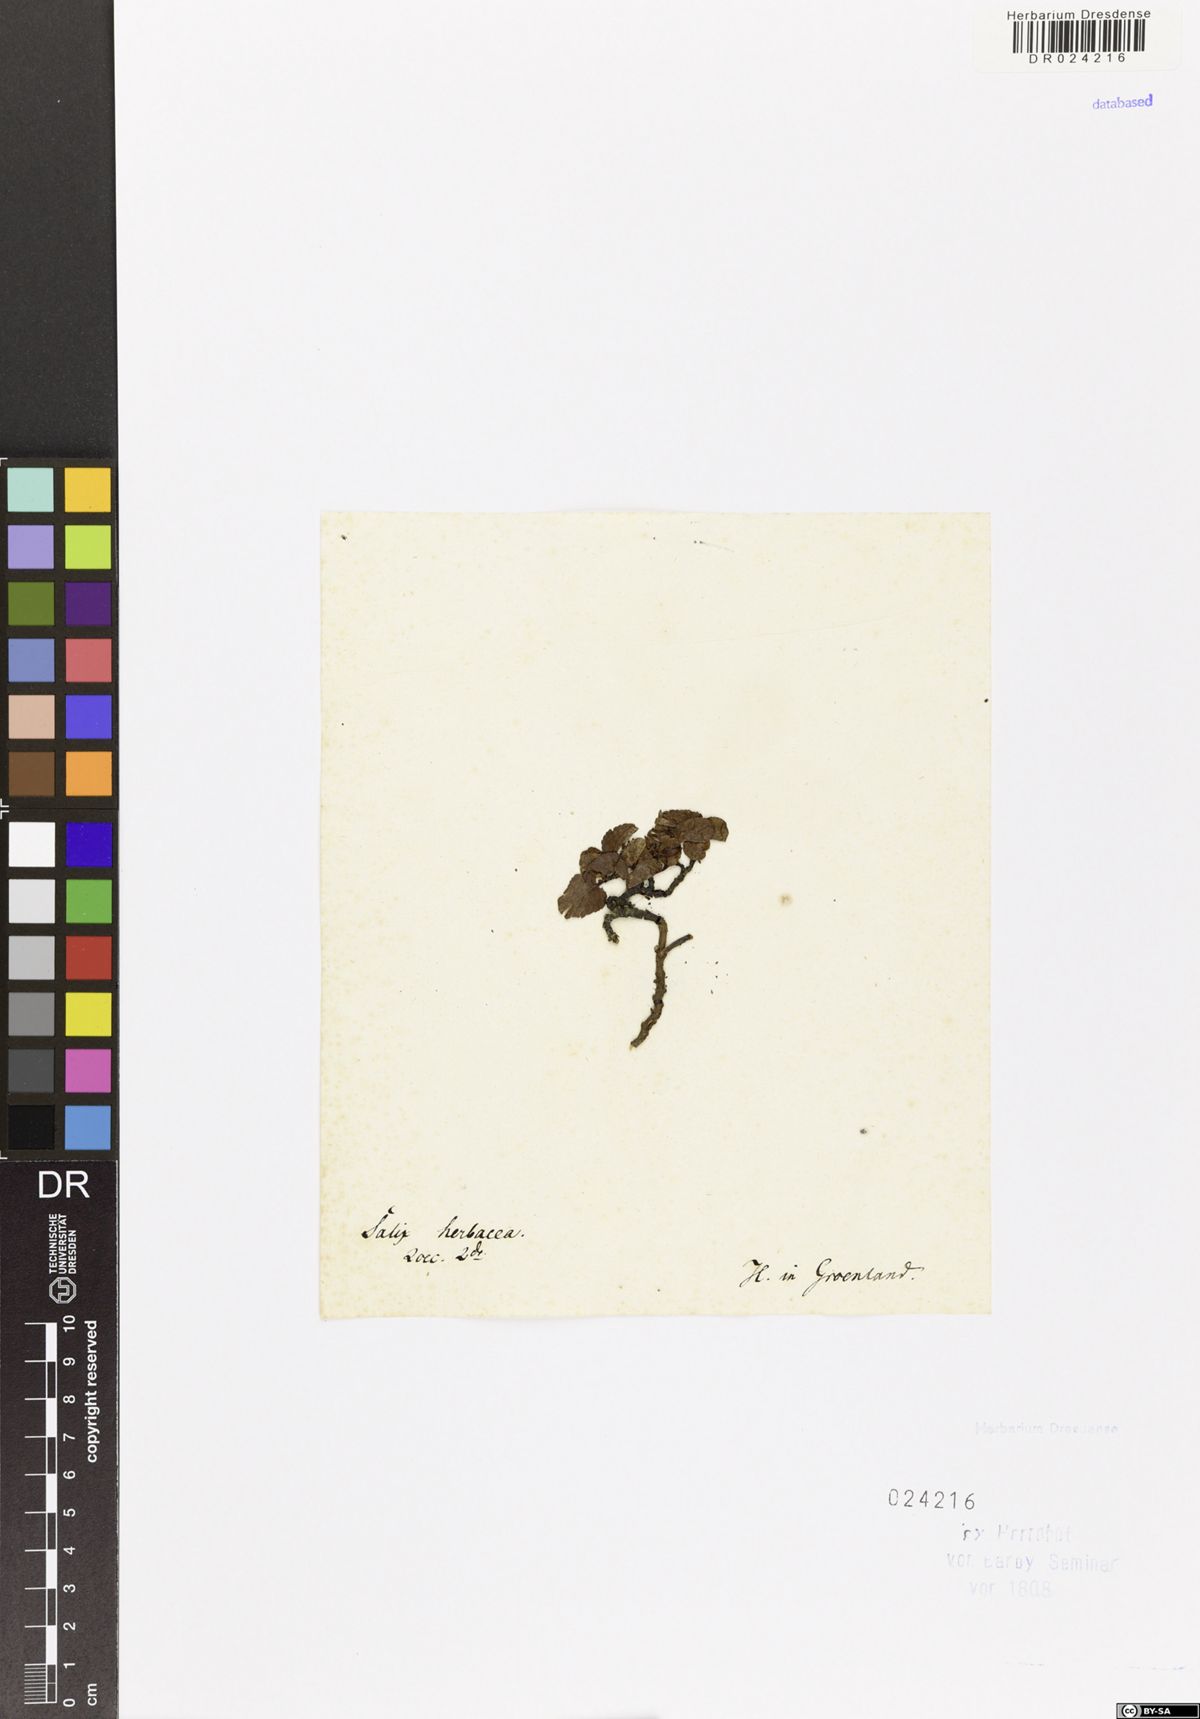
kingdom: Plantae
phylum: Tracheophyta
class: Magnoliopsida
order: Malpighiales
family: Salicaceae
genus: Salix
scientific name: Salix herbacea
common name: Dwarf willow
